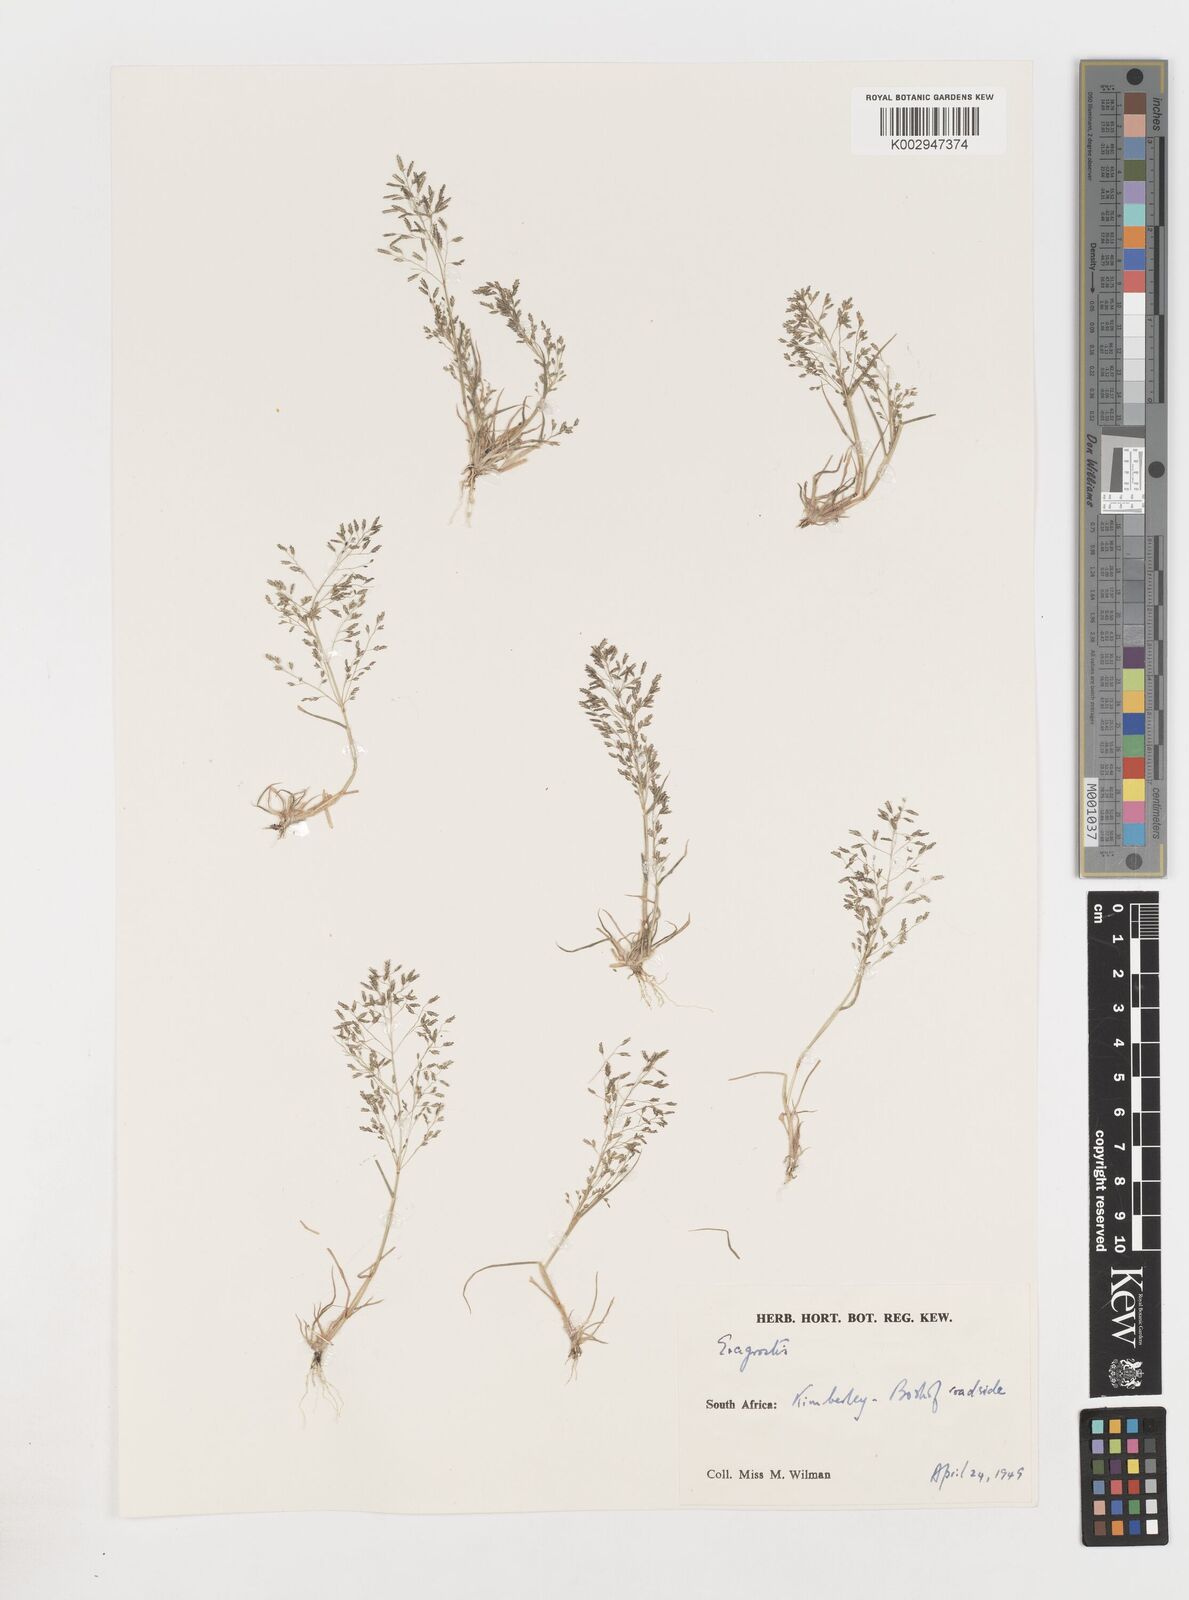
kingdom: Plantae
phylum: Tracheophyta
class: Liliopsida
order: Poales
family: Poaceae
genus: Eragrostis
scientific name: Eragrostis
